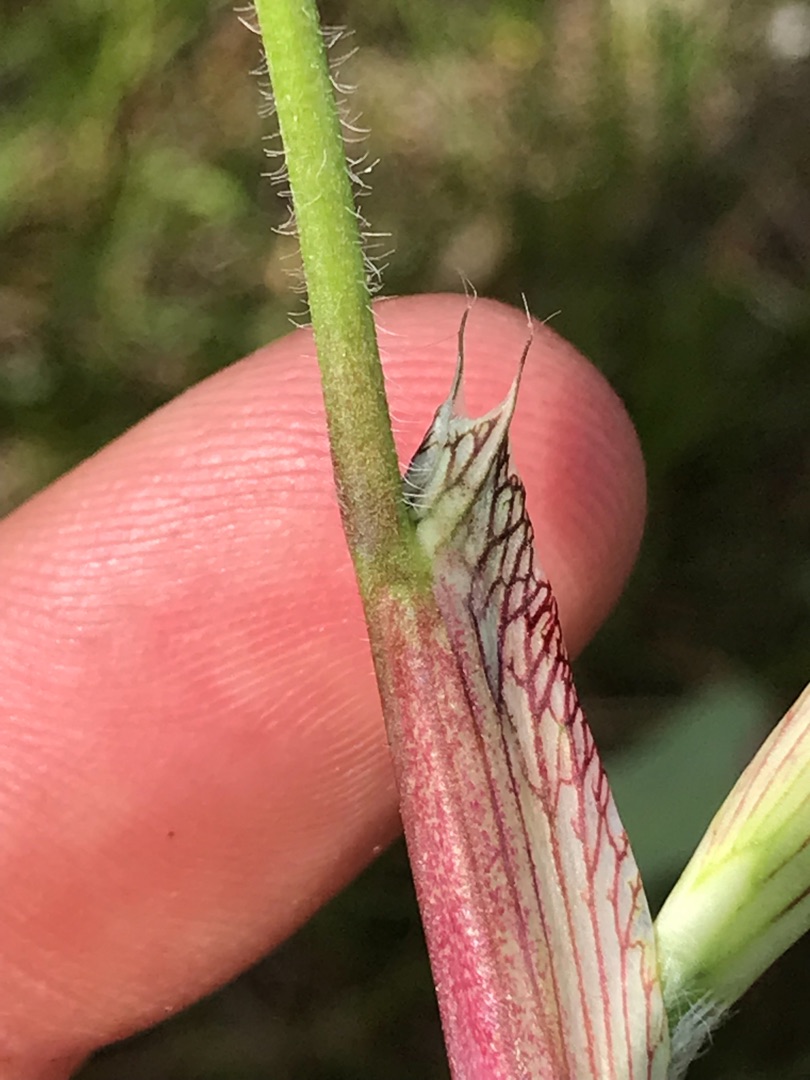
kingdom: Plantae
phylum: Tracheophyta
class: Magnoliopsida
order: Fabales
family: Fabaceae
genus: Trifolium
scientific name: Trifolium pratense
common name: Rød-kløver
